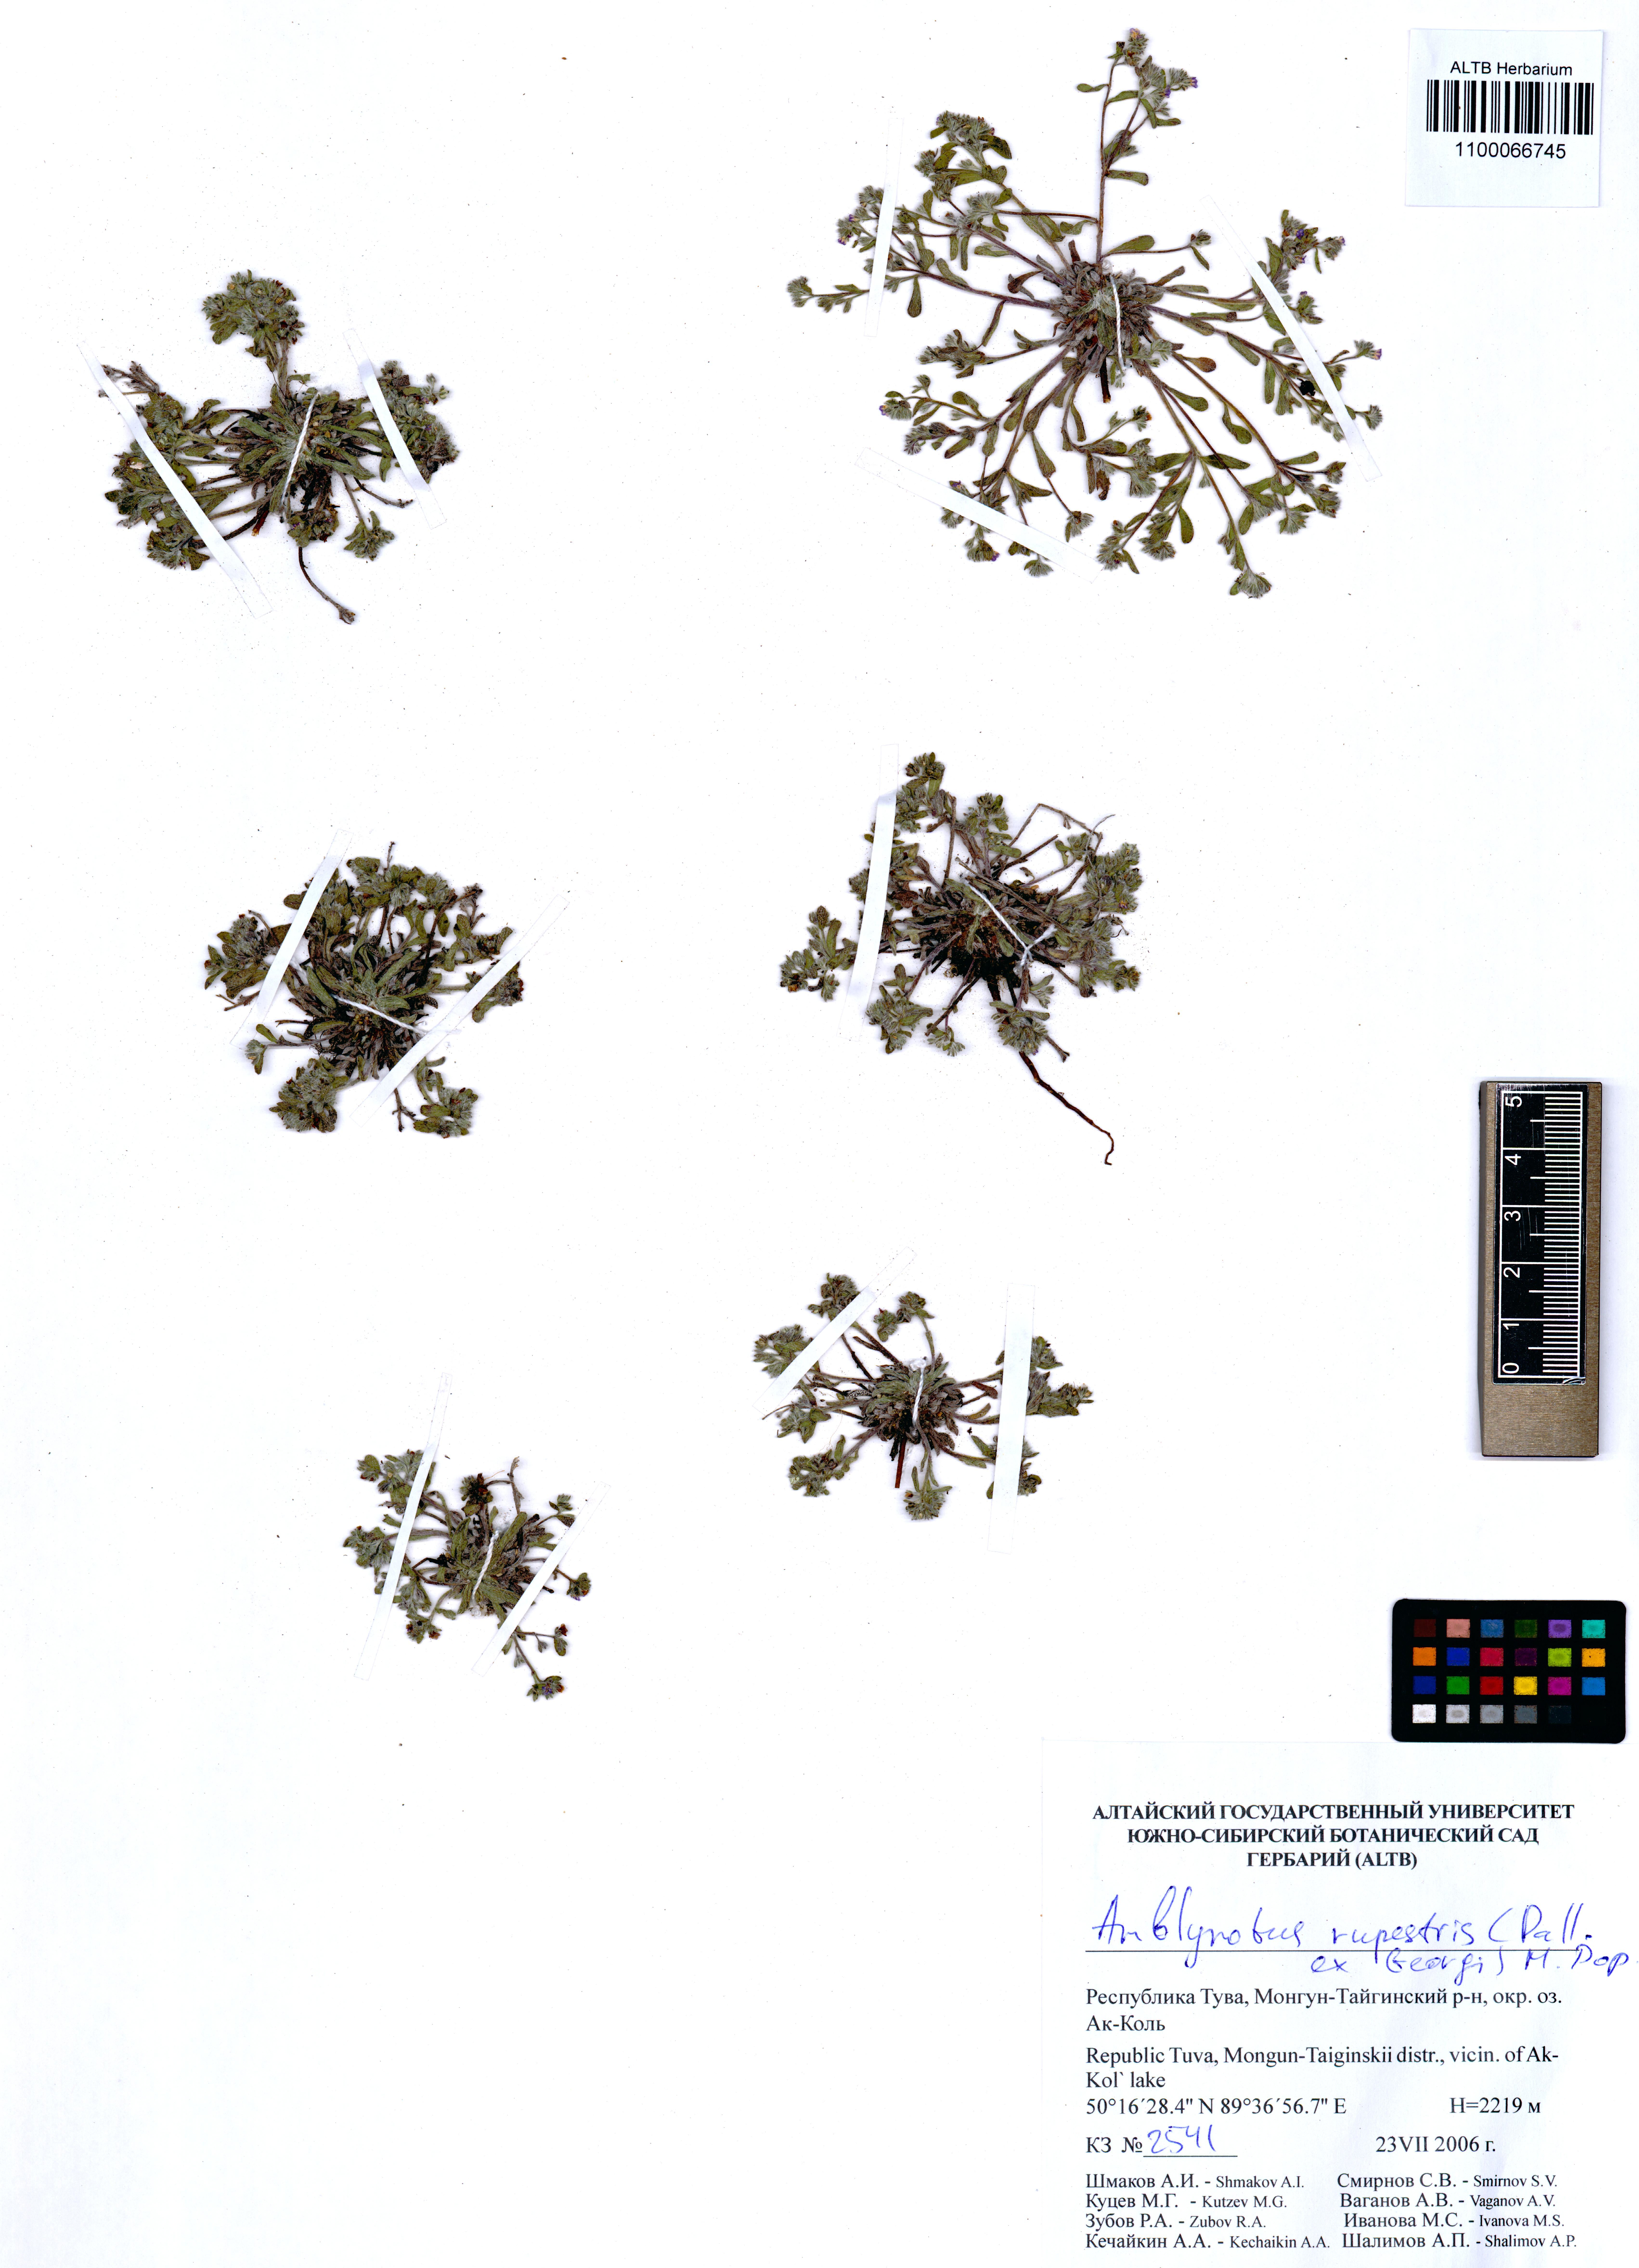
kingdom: Plantae
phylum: Tracheophyta
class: Magnoliopsida
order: Boraginales
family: Boraginaceae
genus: Eritrichium
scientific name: Eritrichium rupestre
